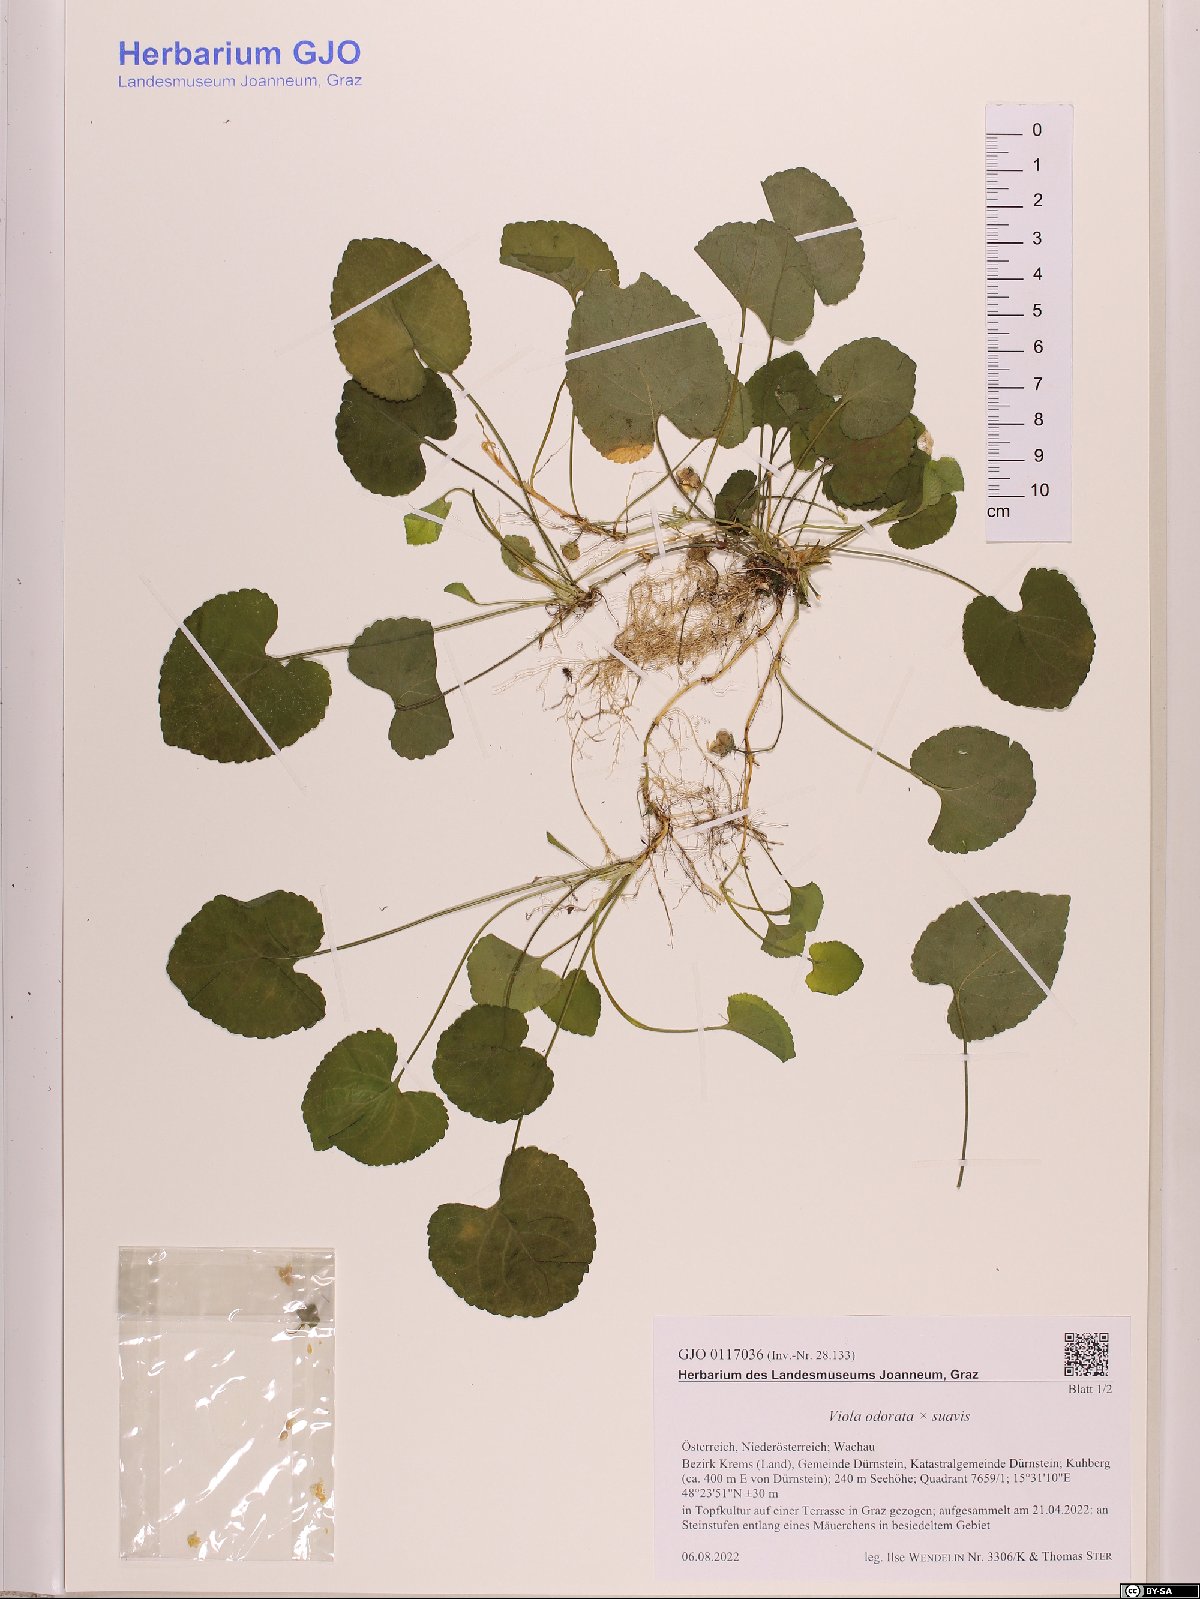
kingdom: Plantae
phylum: Tracheophyta
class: Magnoliopsida
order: Malpighiales
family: Violaceae
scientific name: Violaceae
